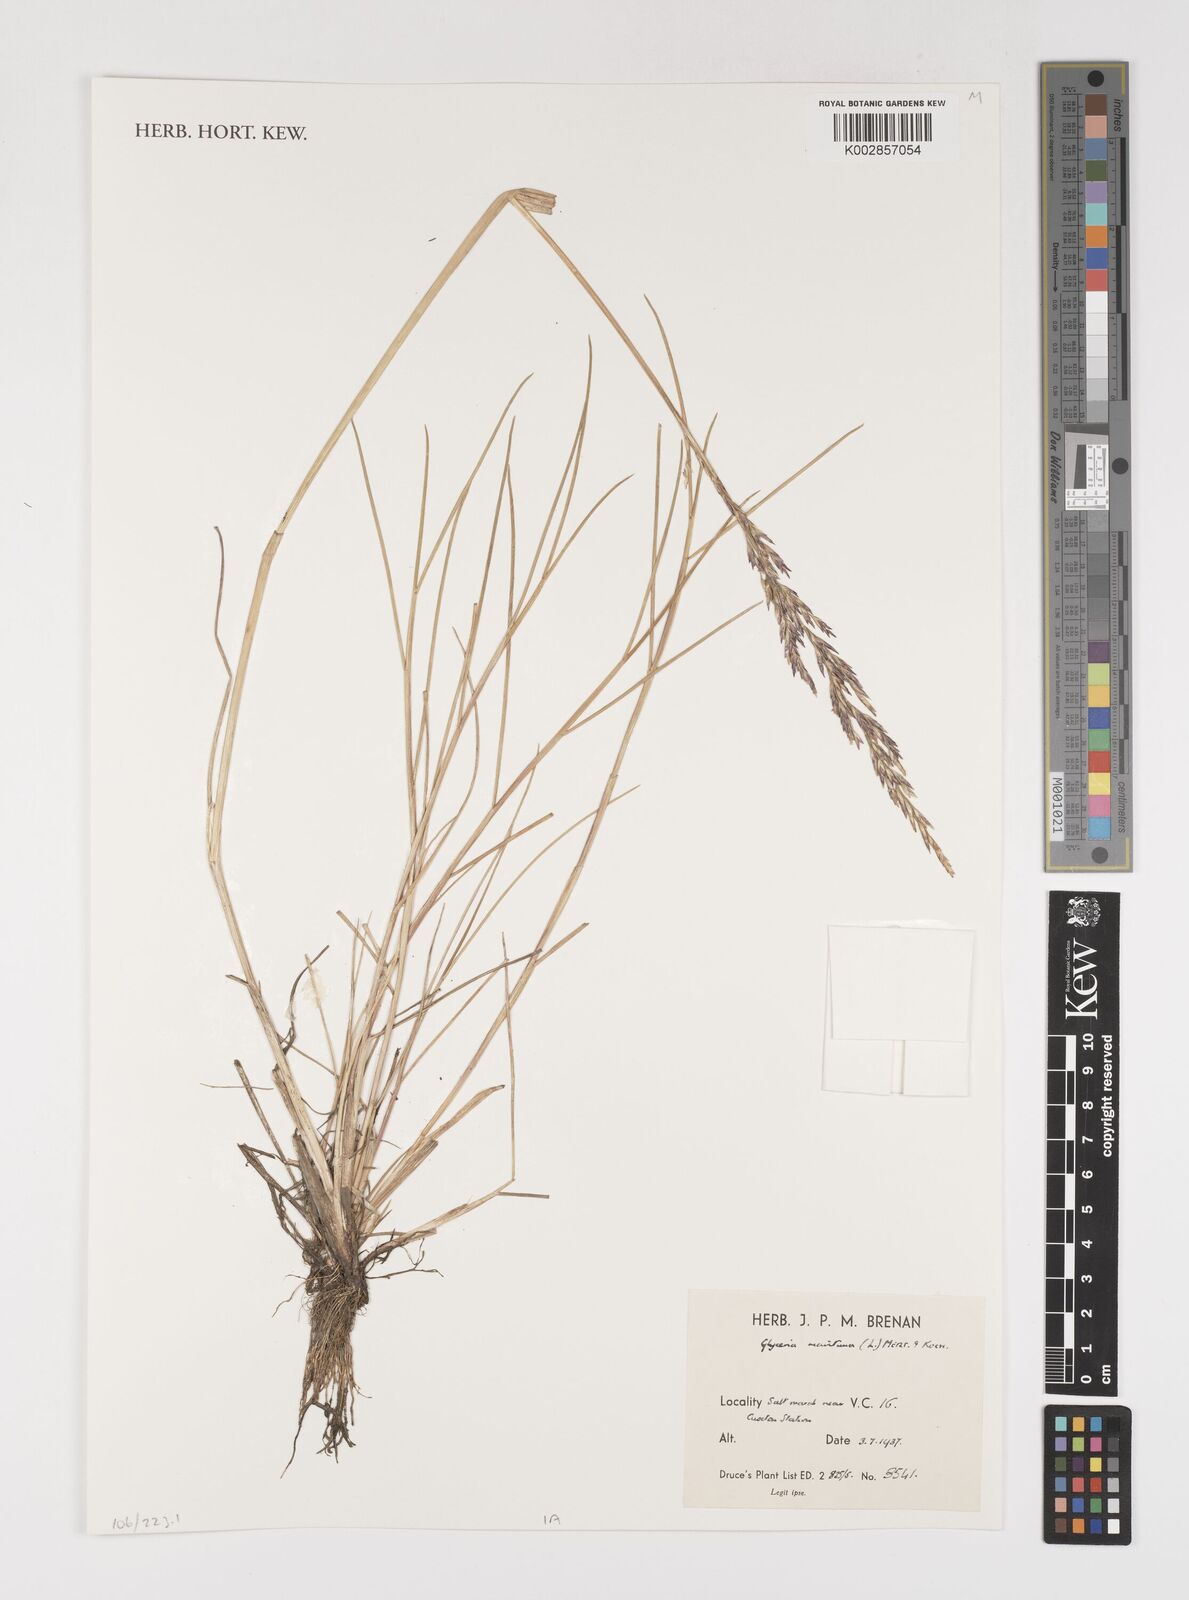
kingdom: Plantae
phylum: Tracheophyta
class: Liliopsida
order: Poales
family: Poaceae
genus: Puccinellia
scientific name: Puccinellia maritima
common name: Common saltmarsh grass
